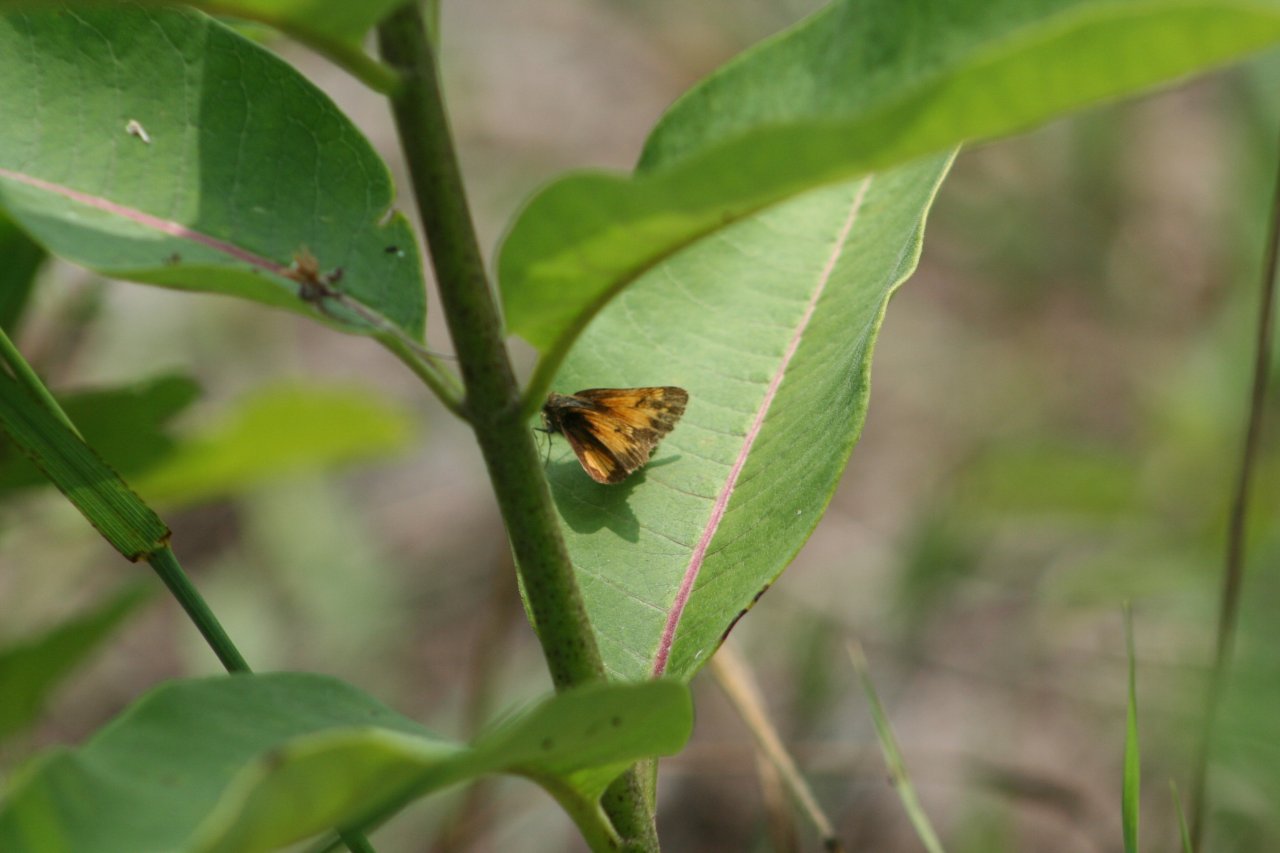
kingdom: Animalia
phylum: Arthropoda
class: Insecta
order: Lepidoptera
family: Hesperiidae
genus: Lon
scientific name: Lon hobomok
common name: Hobomok Skipper
